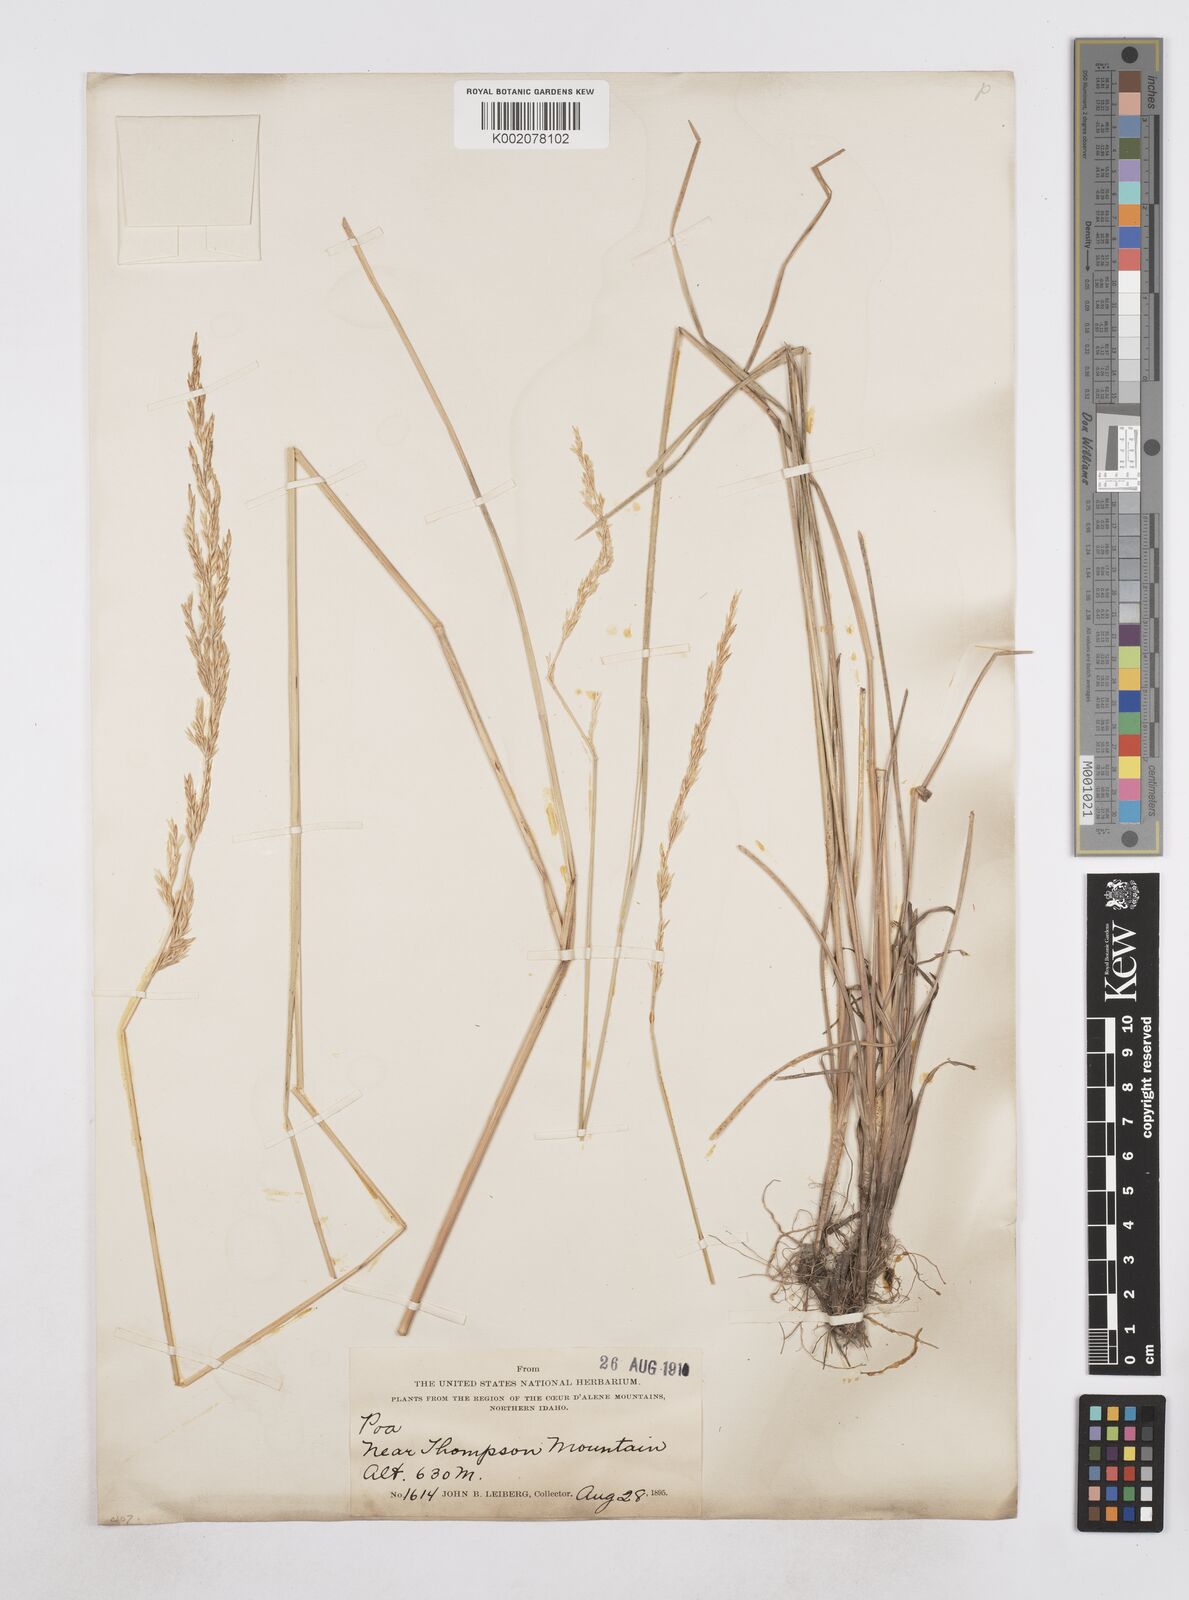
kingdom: Plantae
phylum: Tracheophyta
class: Liliopsida
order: Poales
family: Poaceae
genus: Poa
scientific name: Poa
